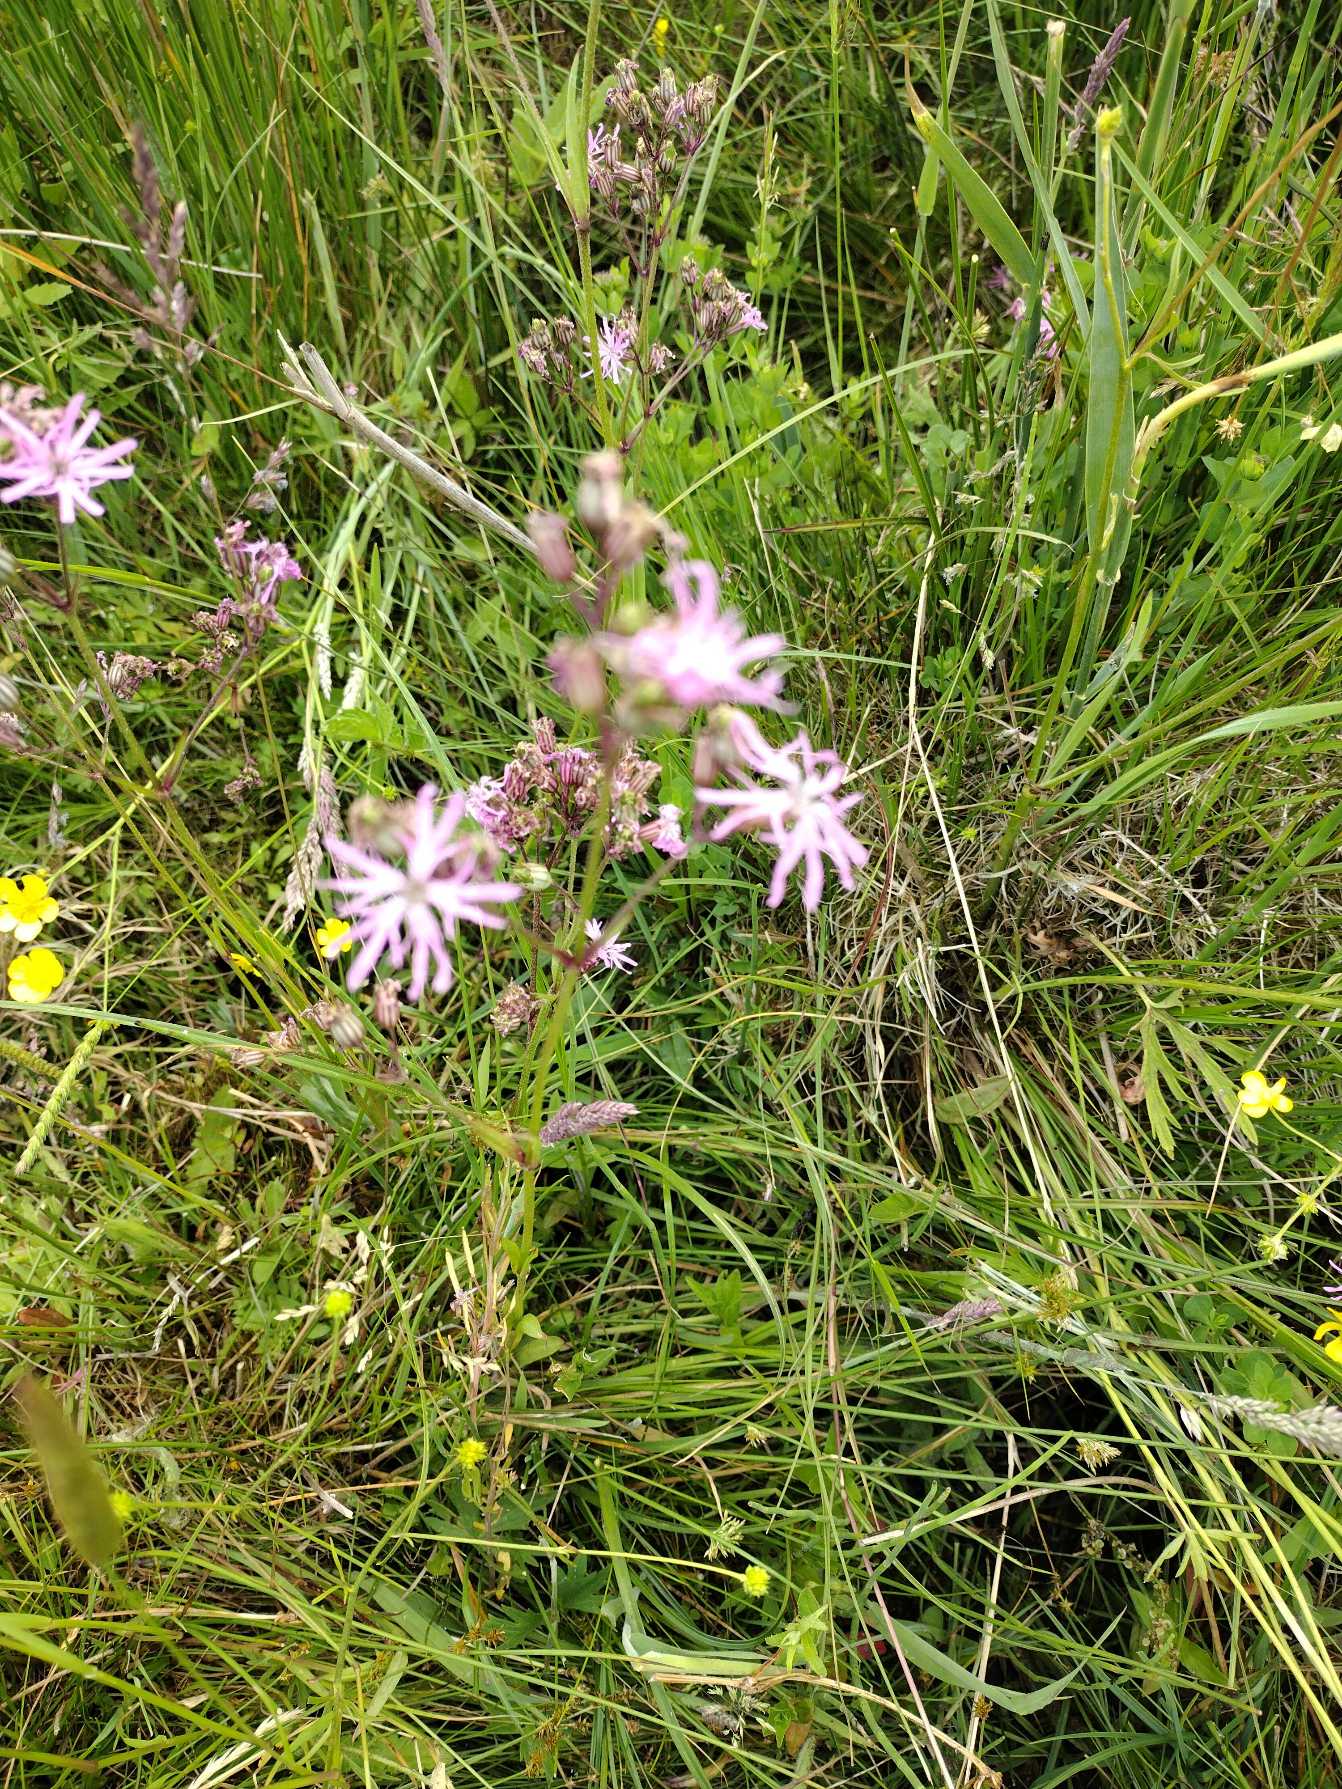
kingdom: Plantae
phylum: Tracheophyta
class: Magnoliopsida
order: Caryophyllales
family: Caryophyllaceae
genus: Silene
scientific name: Silene flos-cuculi
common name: Trævlekrone
